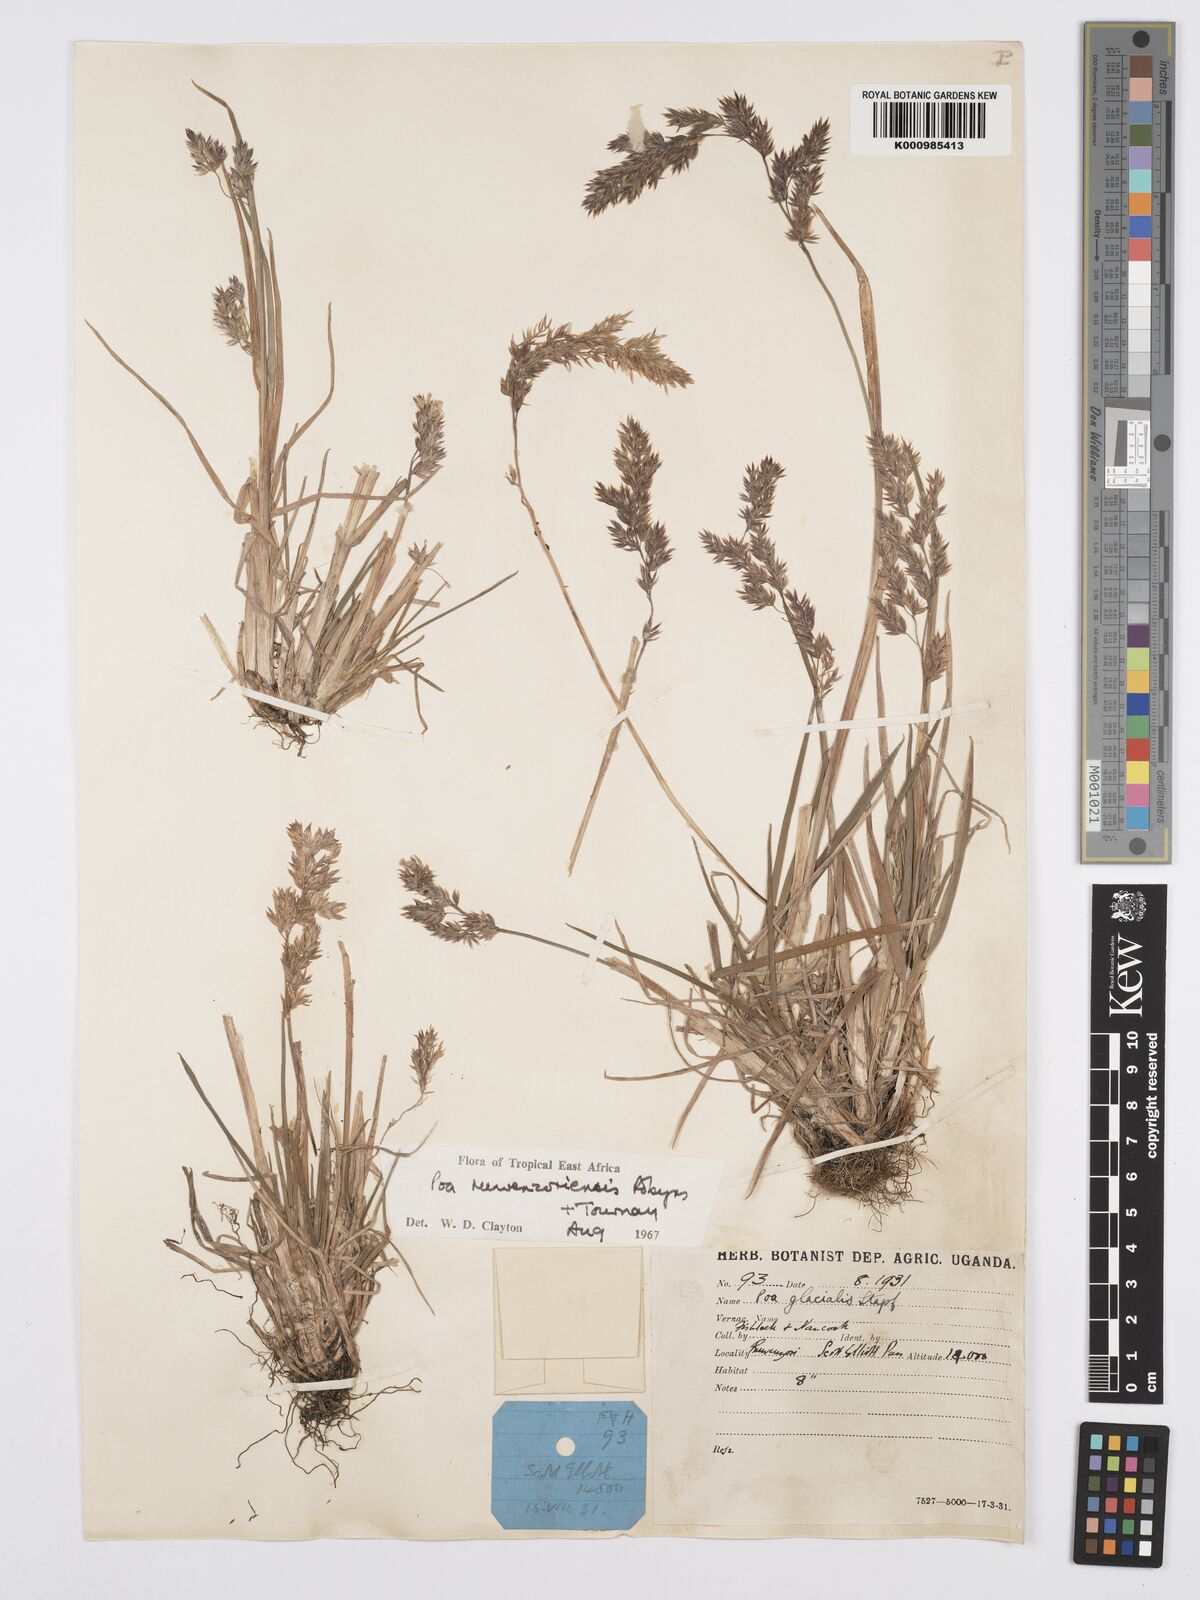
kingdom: Plantae
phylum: Tracheophyta
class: Liliopsida
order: Poales
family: Poaceae
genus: Poa
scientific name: Poa ruwenzoriensis
